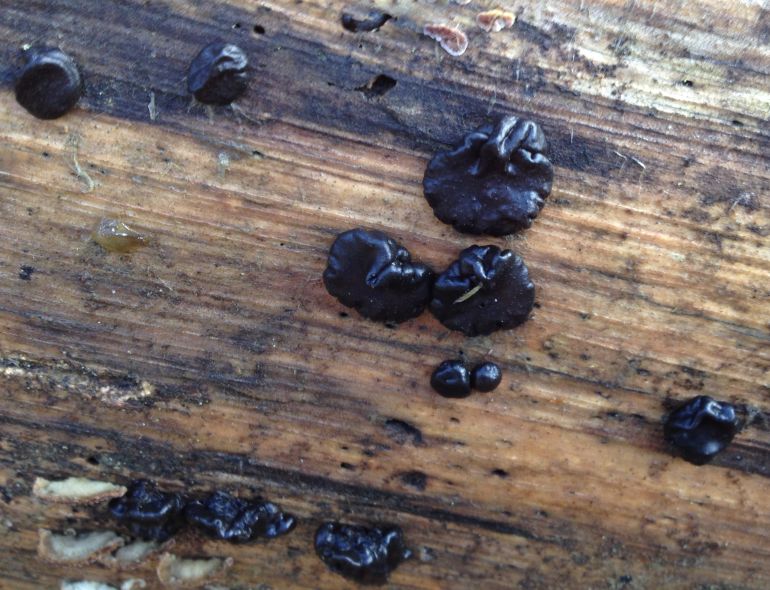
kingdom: Fungi
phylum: Basidiomycota
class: Agaricomycetes
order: Auriculariales
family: Auriculariaceae
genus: Exidia
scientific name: Exidia nigricans
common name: almindelig bævretop
